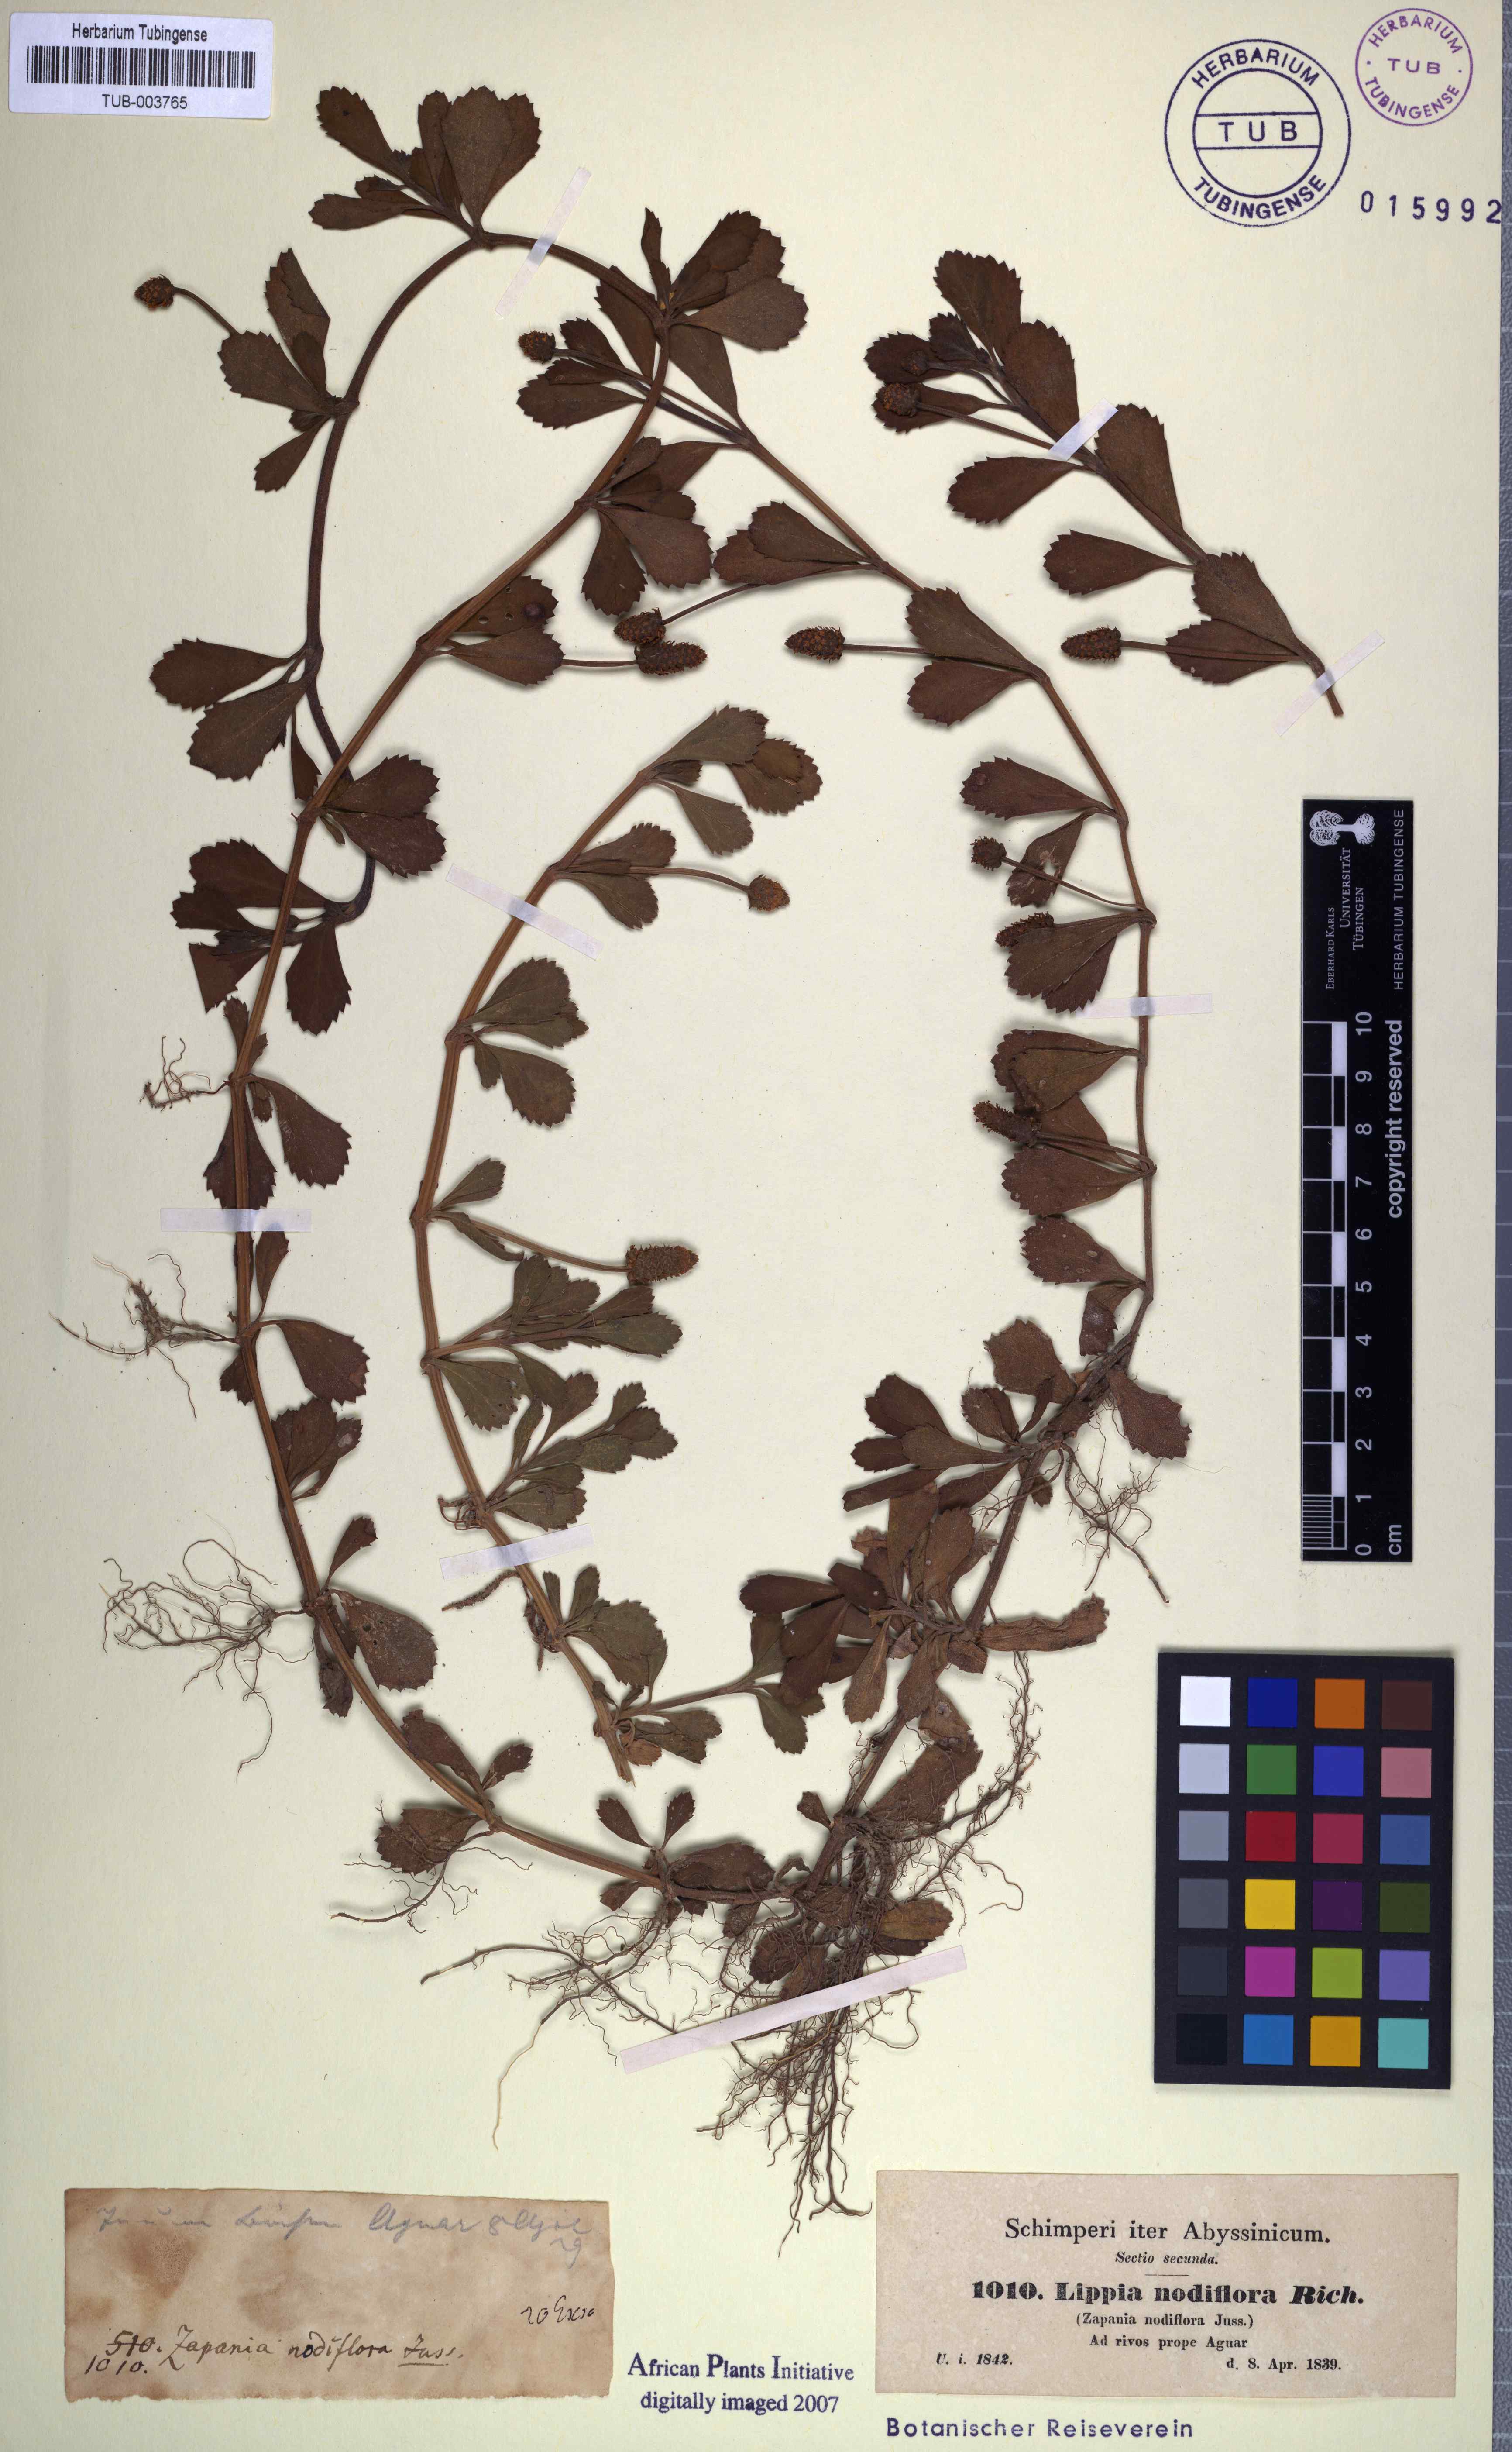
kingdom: Plantae
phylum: Tracheophyta
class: Magnoliopsida
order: Lamiales
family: Verbenaceae
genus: Phyla
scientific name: Phyla nodiflora
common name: Frogfruit
